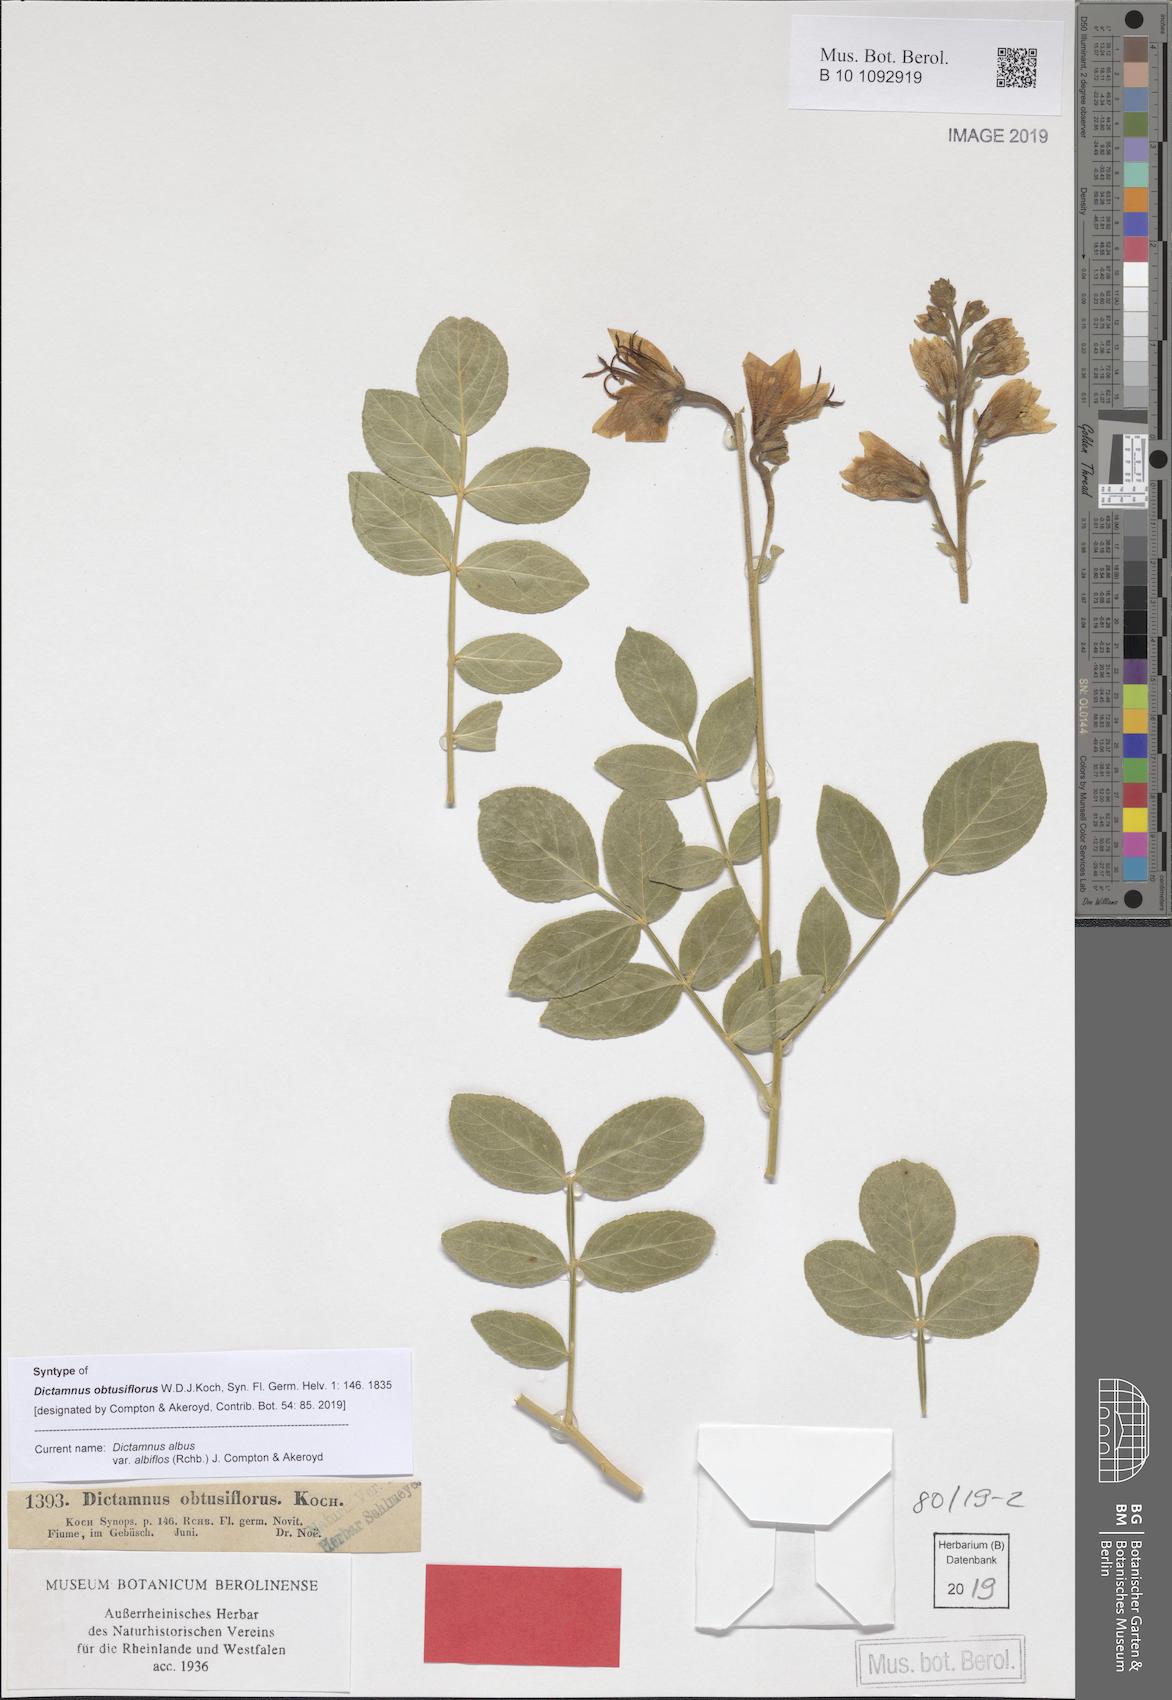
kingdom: Plantae
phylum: Tracheophyta
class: Magnoliopsida
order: Sapindales
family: Rutaceae
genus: Dictamnus
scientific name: Dictamnus albus
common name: Gasplant
